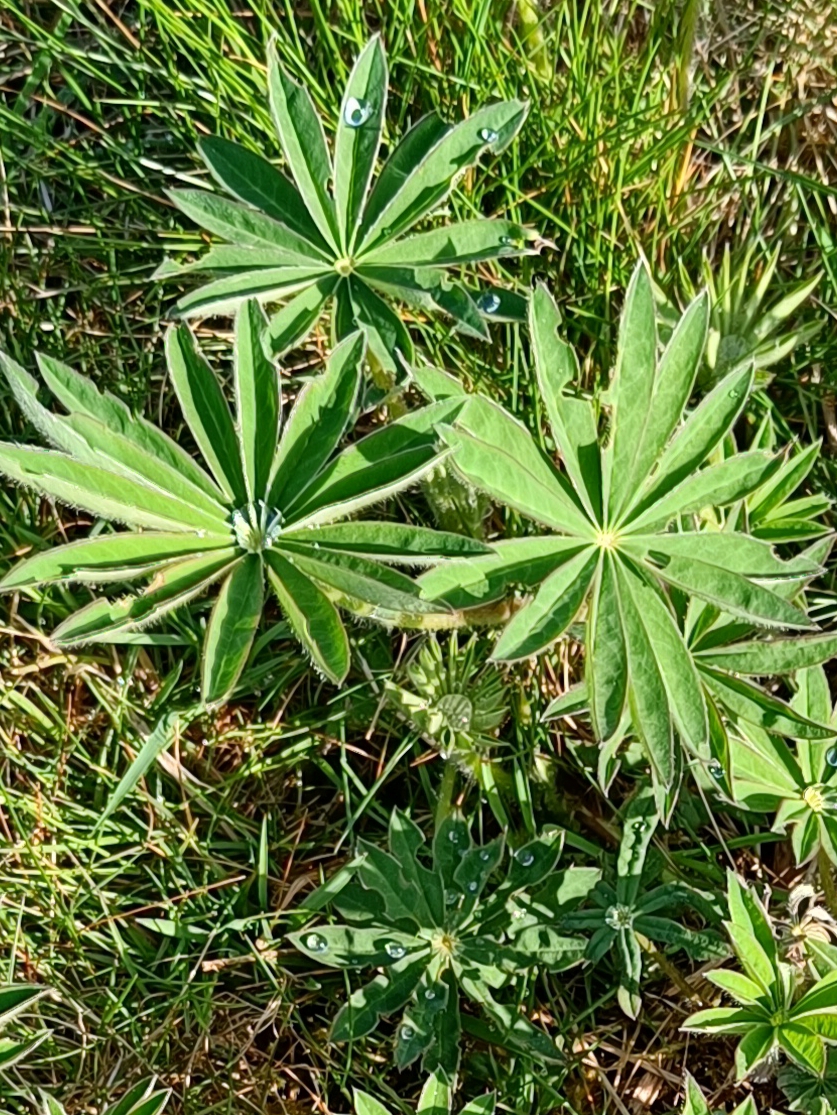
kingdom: Plantae
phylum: Tracheophyta
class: Magnoliopsida
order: Fabales
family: Fabaceae
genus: Lupinus
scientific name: Lupinus polyphyllus
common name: Mangebladet lupin
